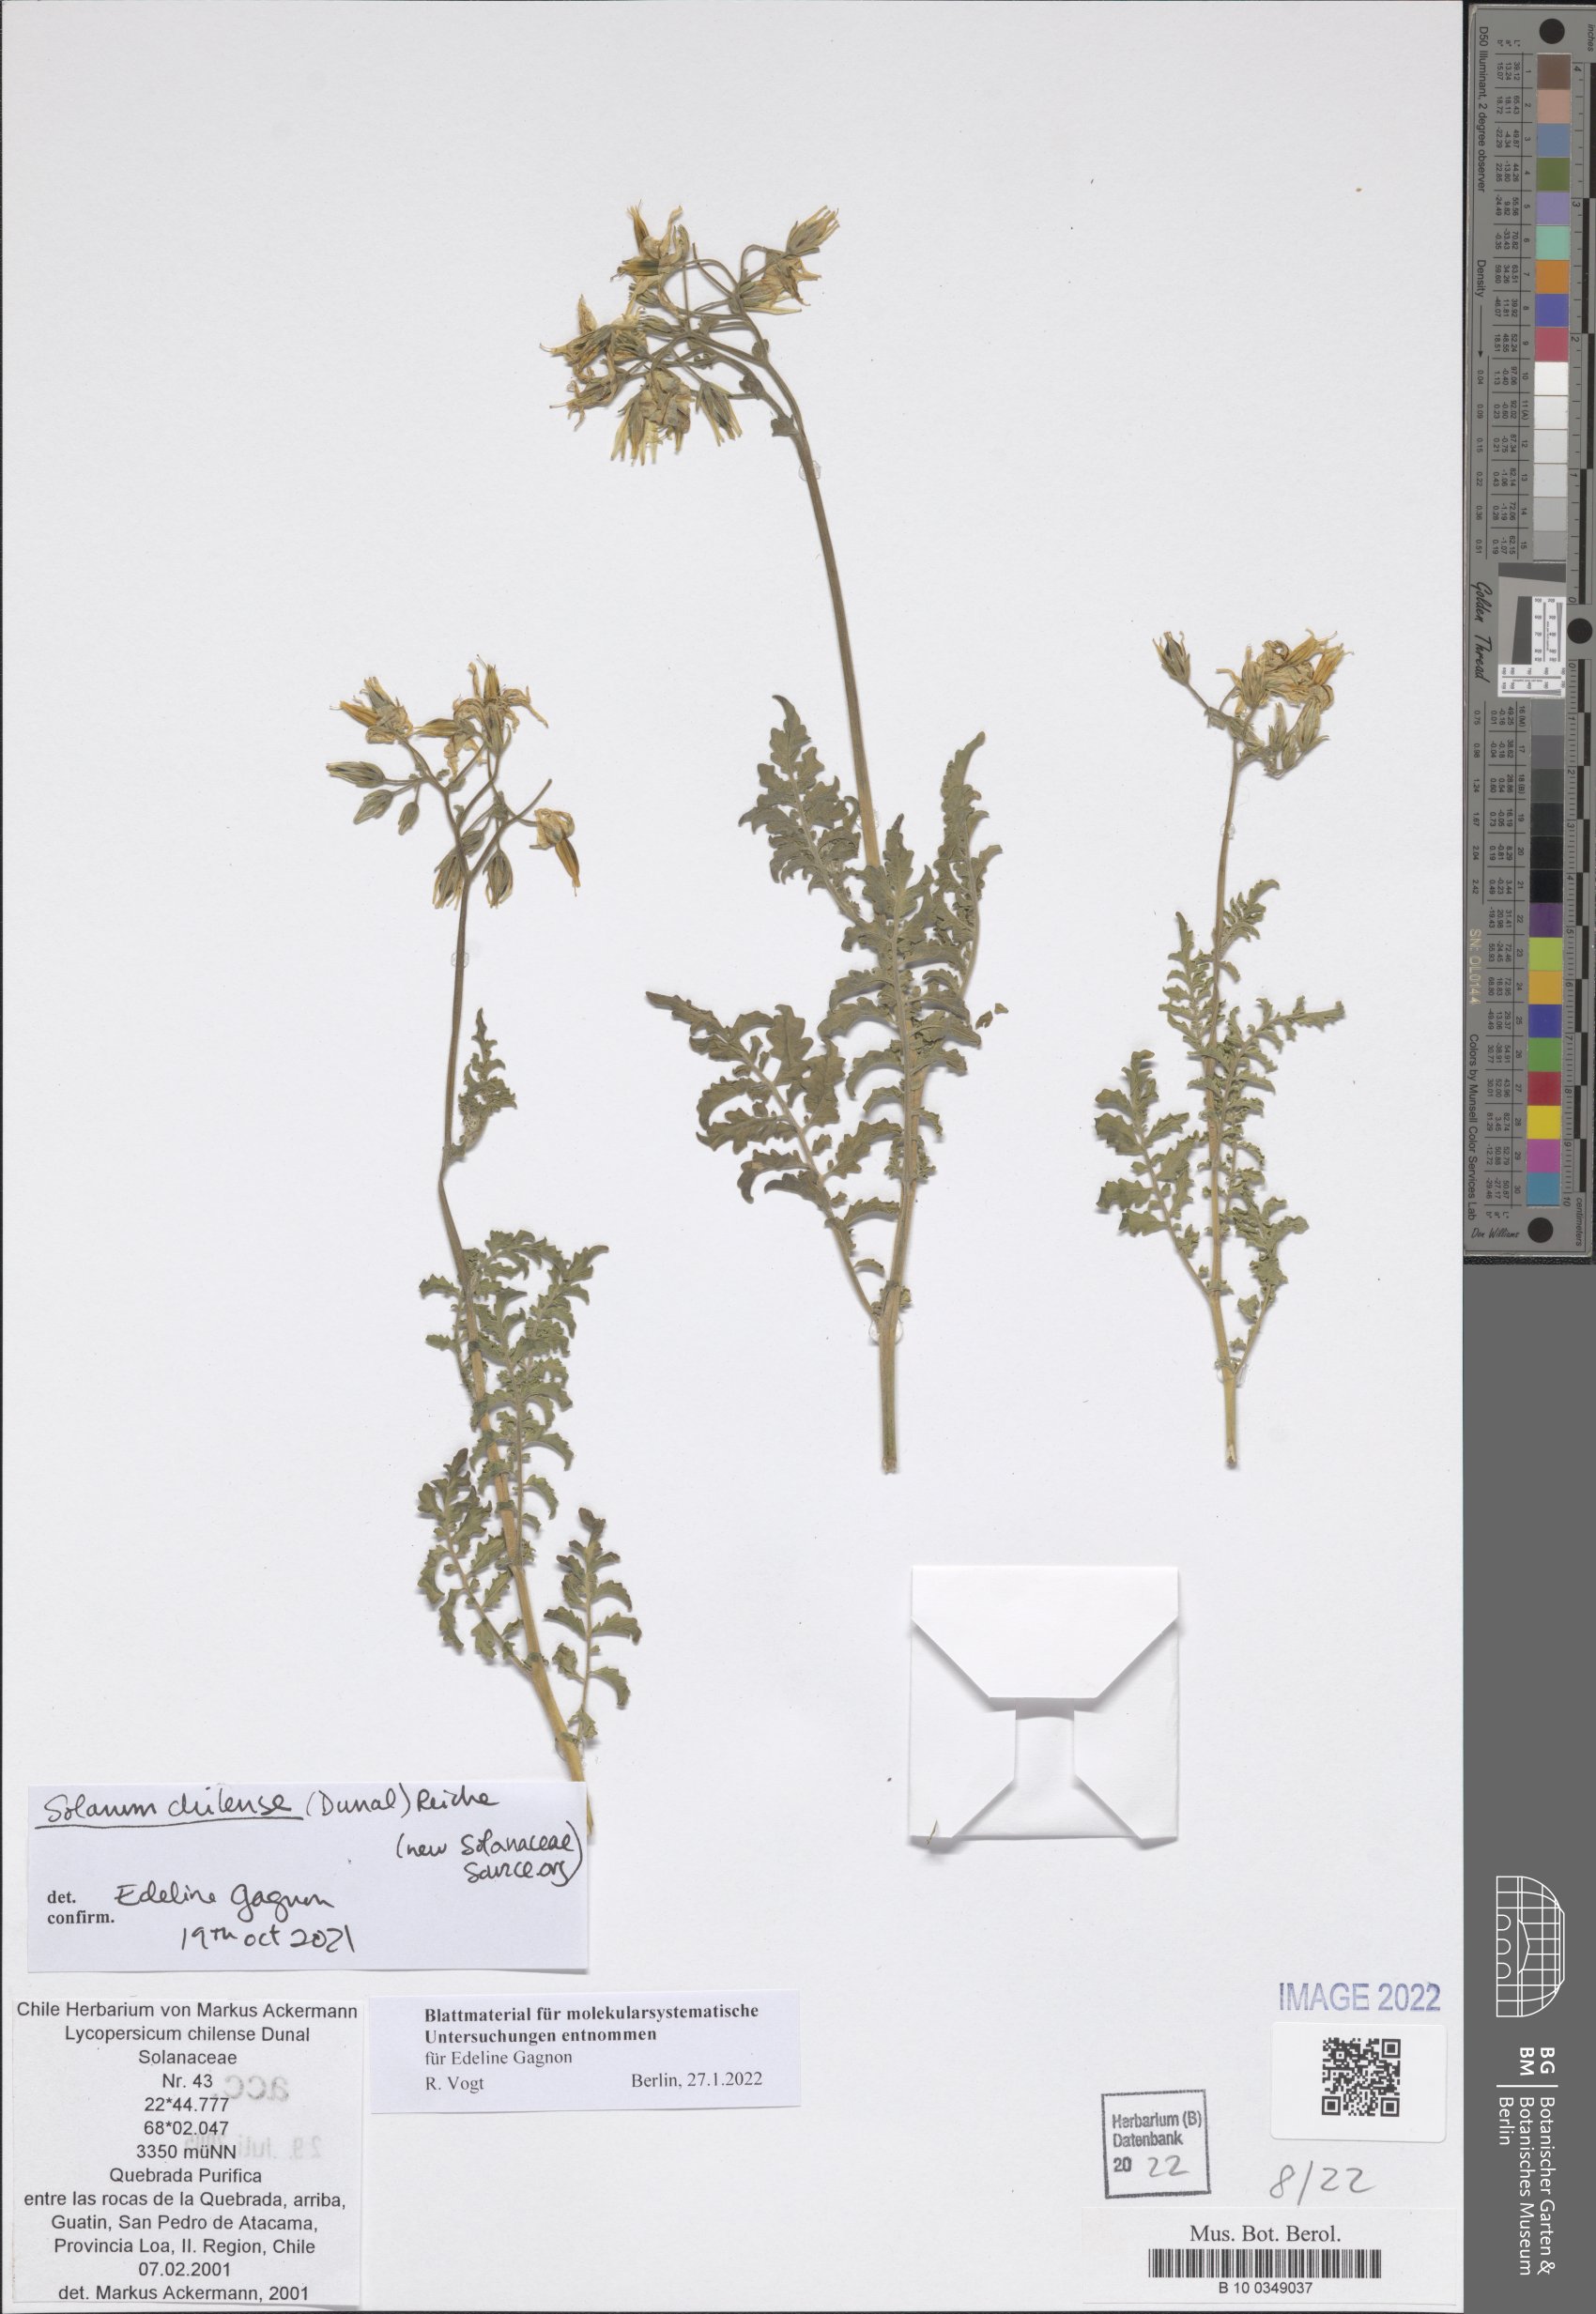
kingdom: Plantae
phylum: Tracheophyta
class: Magnoliopsida
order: Solanales
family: Solanaceae
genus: Solanum
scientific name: Solanum chilense
